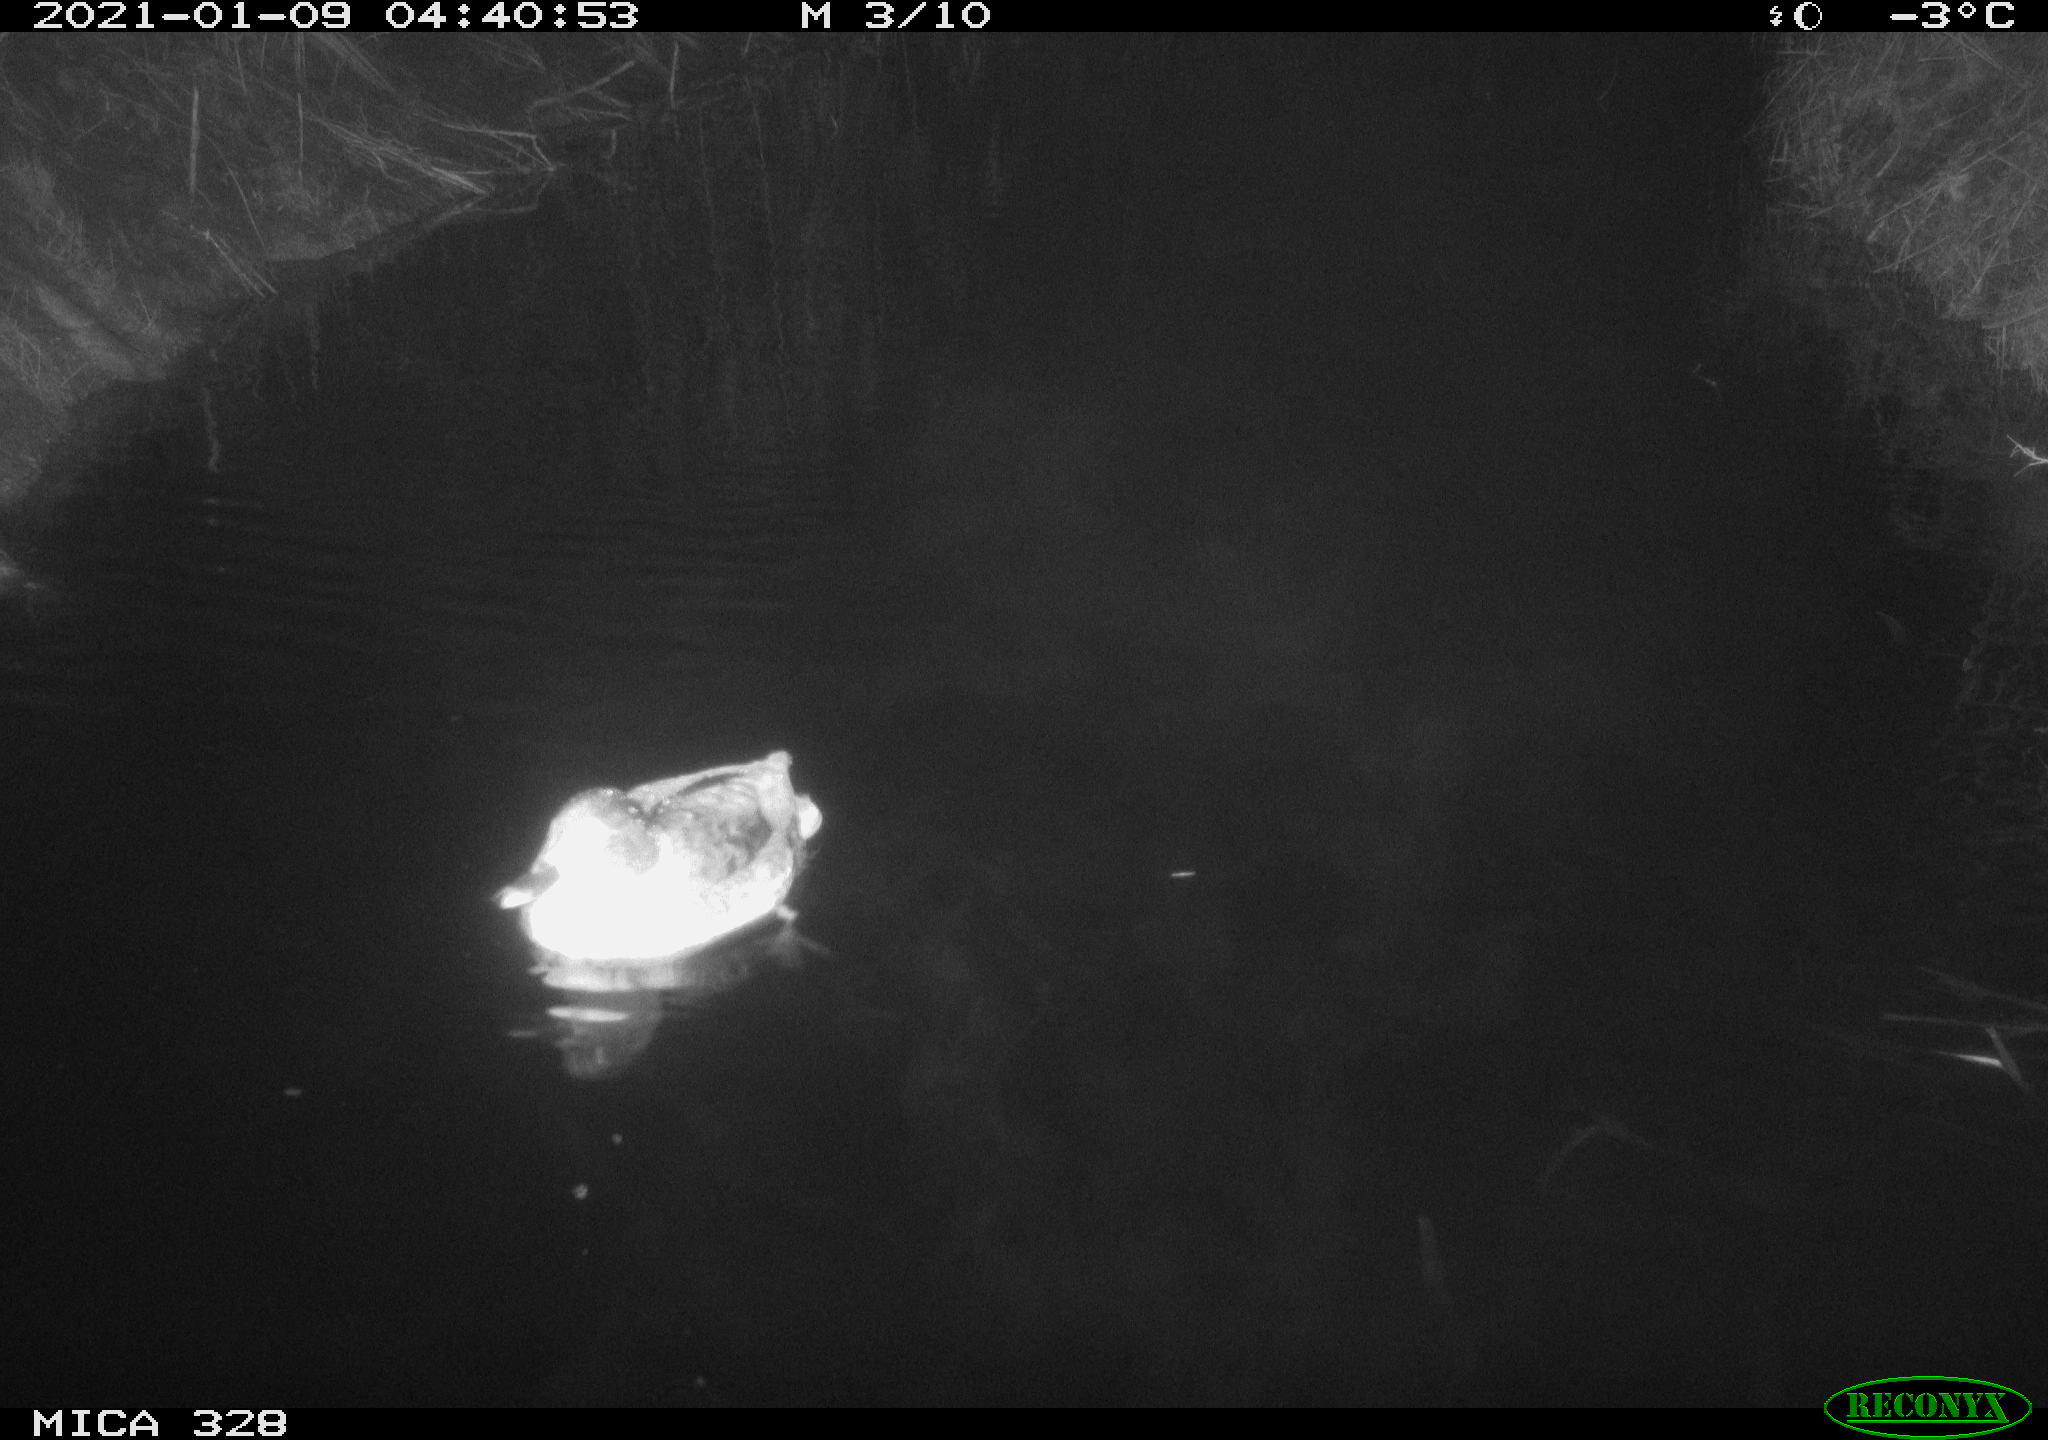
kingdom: Animalia
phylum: Chordata
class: Aves
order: Anseriformes
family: Anatidae
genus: Anas
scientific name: Anas platyrhynchos
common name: Mallard
